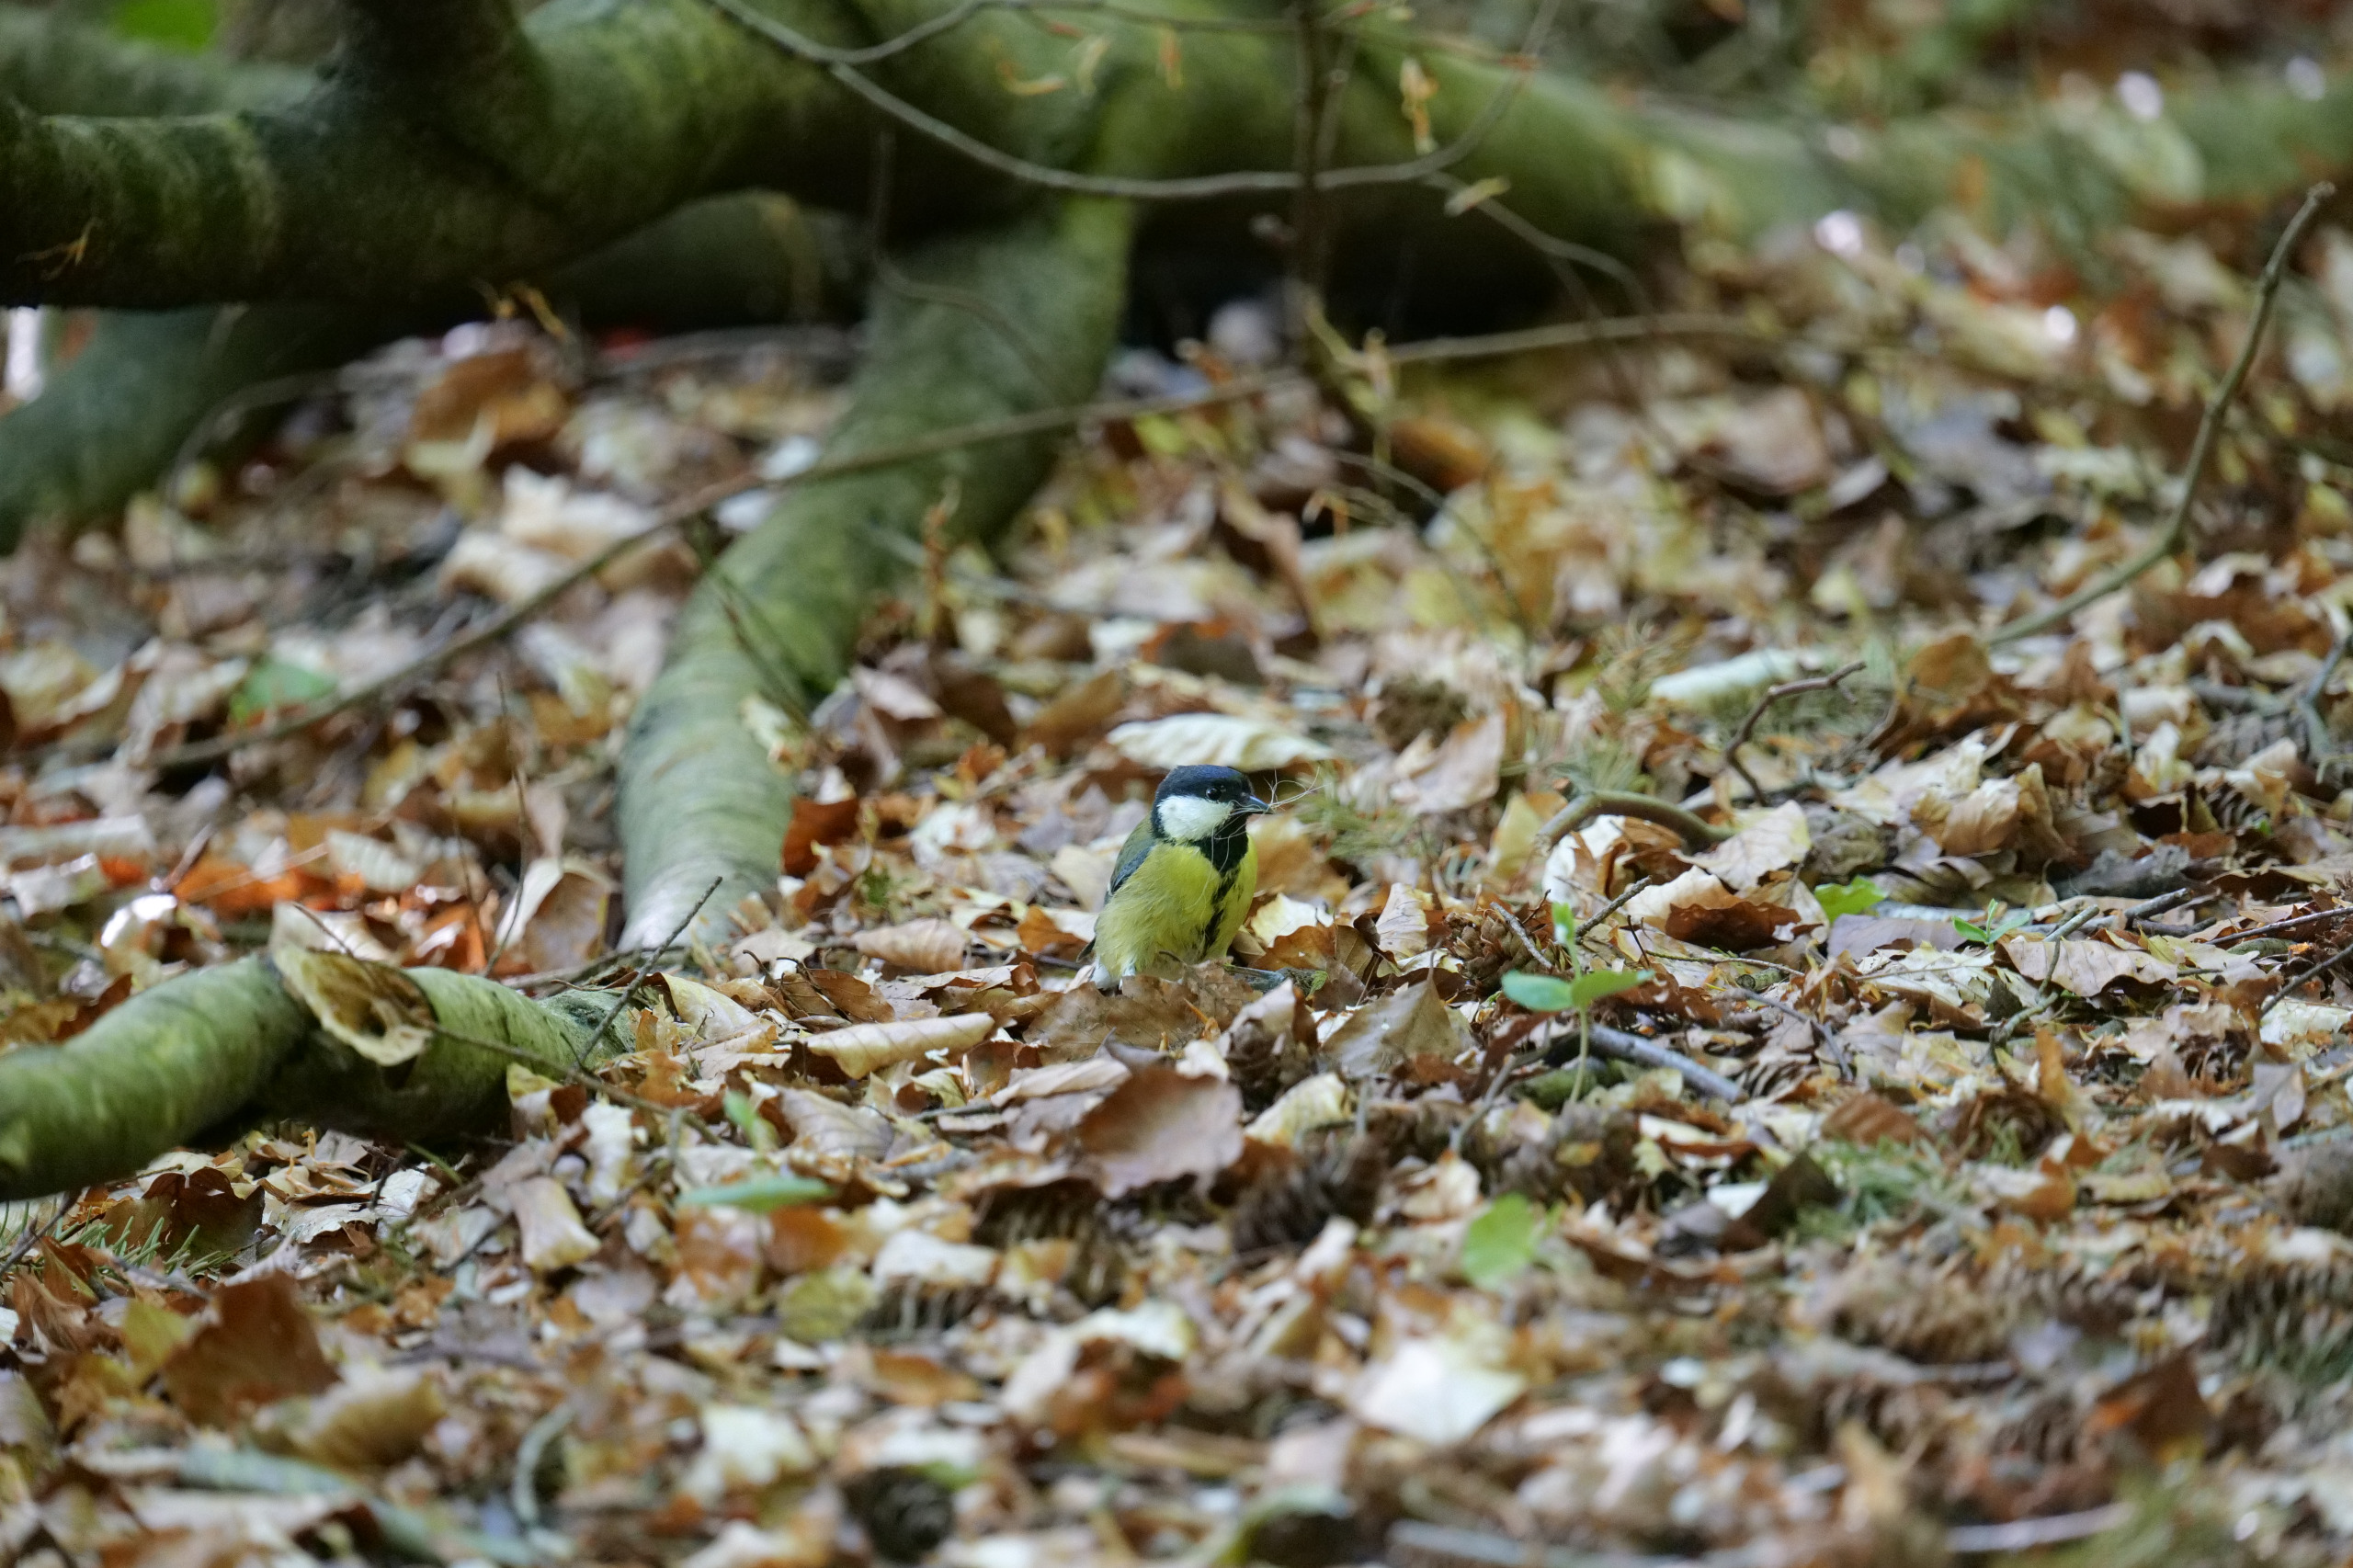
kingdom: Animalia
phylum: Chordata
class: Aves
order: Passeriformes
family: Paridae
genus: Parus
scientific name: Parus major
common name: Musvit
